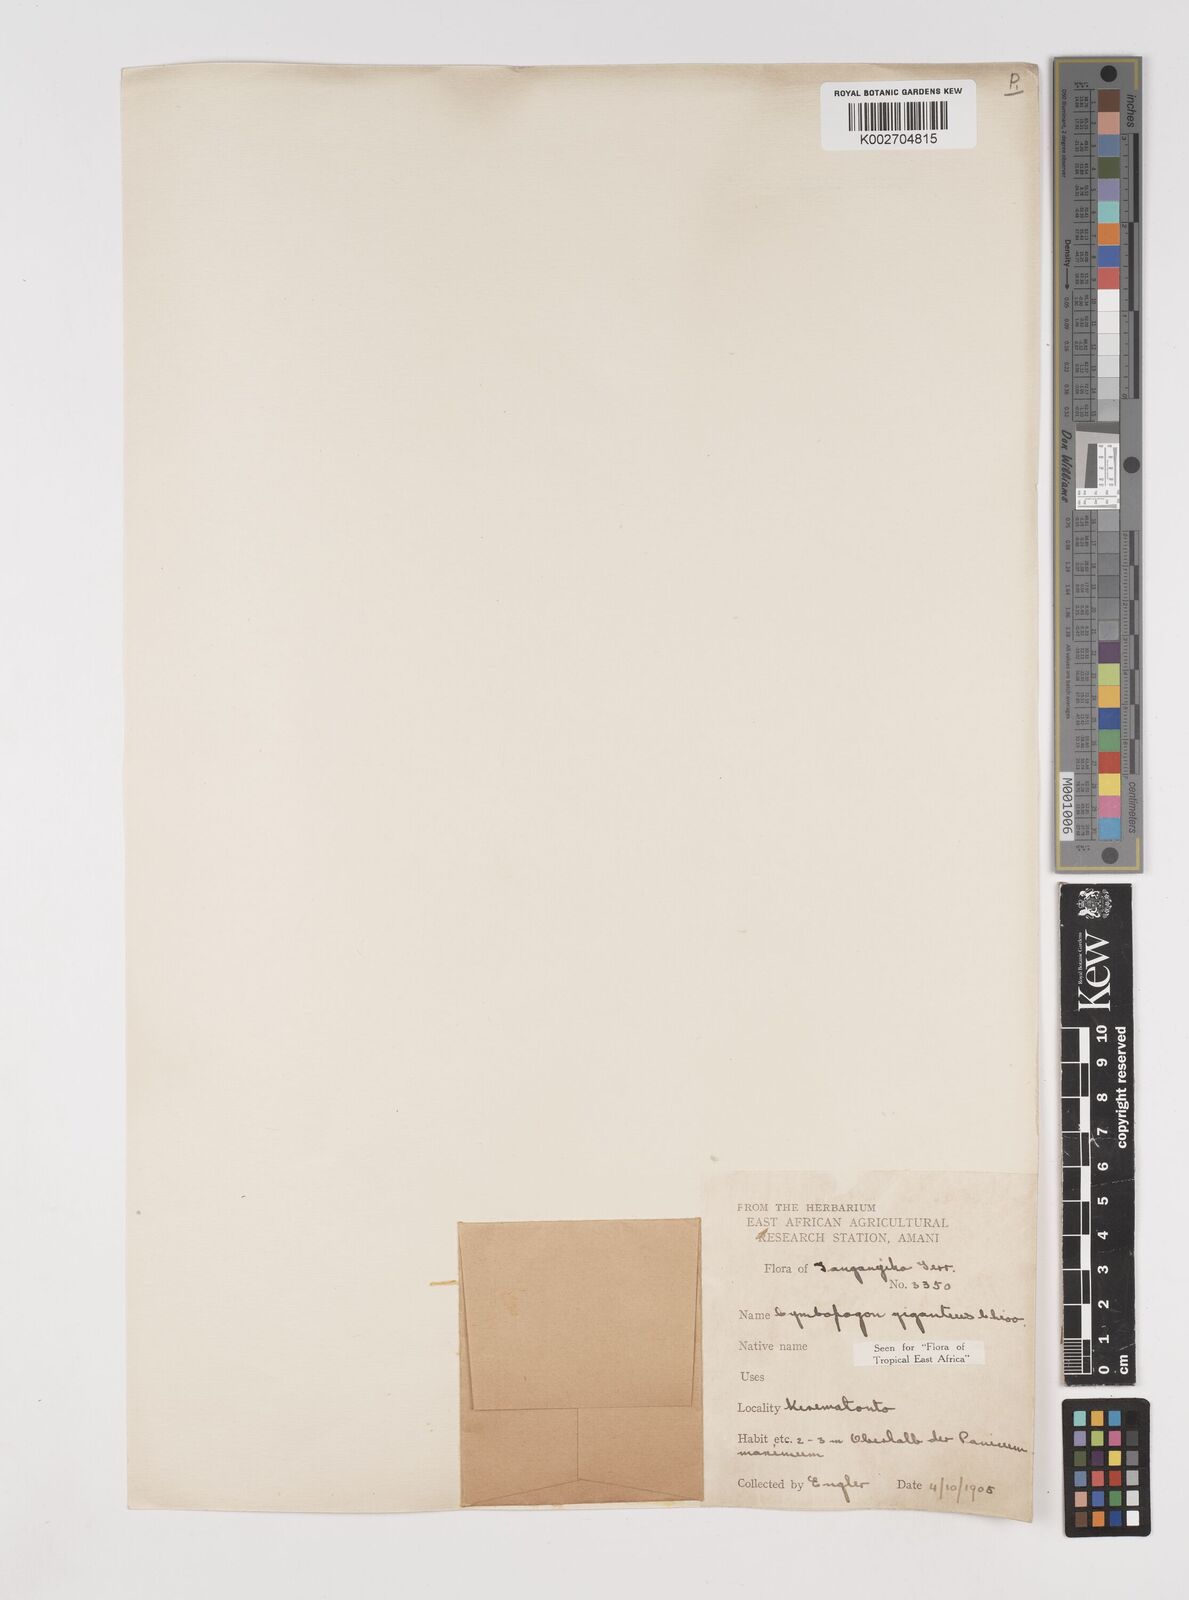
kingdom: Plantae
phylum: Tracheophyta
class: Liliopsida
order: Poales
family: Poaceae
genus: Cymbopogon
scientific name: Cymbopogon giganteus
